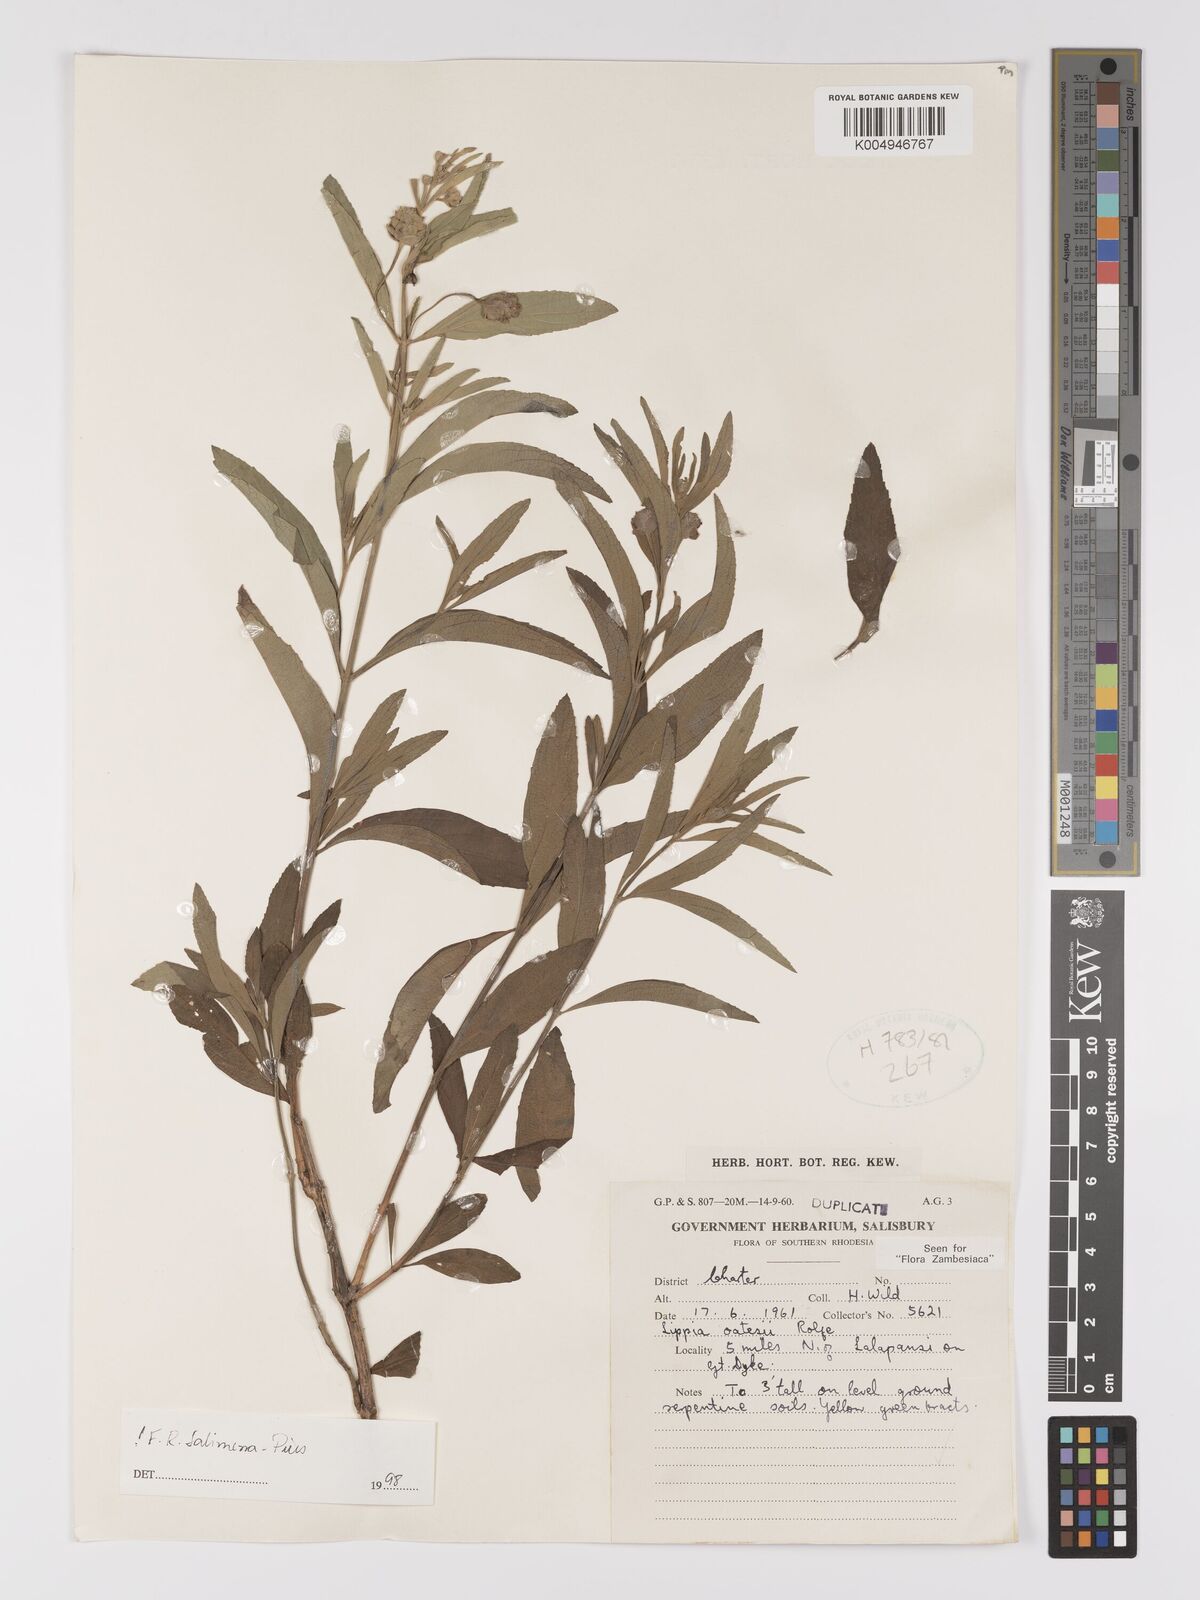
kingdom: Plantae
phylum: Tracheophyta
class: Magnoliopsida
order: Lamiales
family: Verbenaceae
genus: Lippia
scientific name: Lippia oatesii
